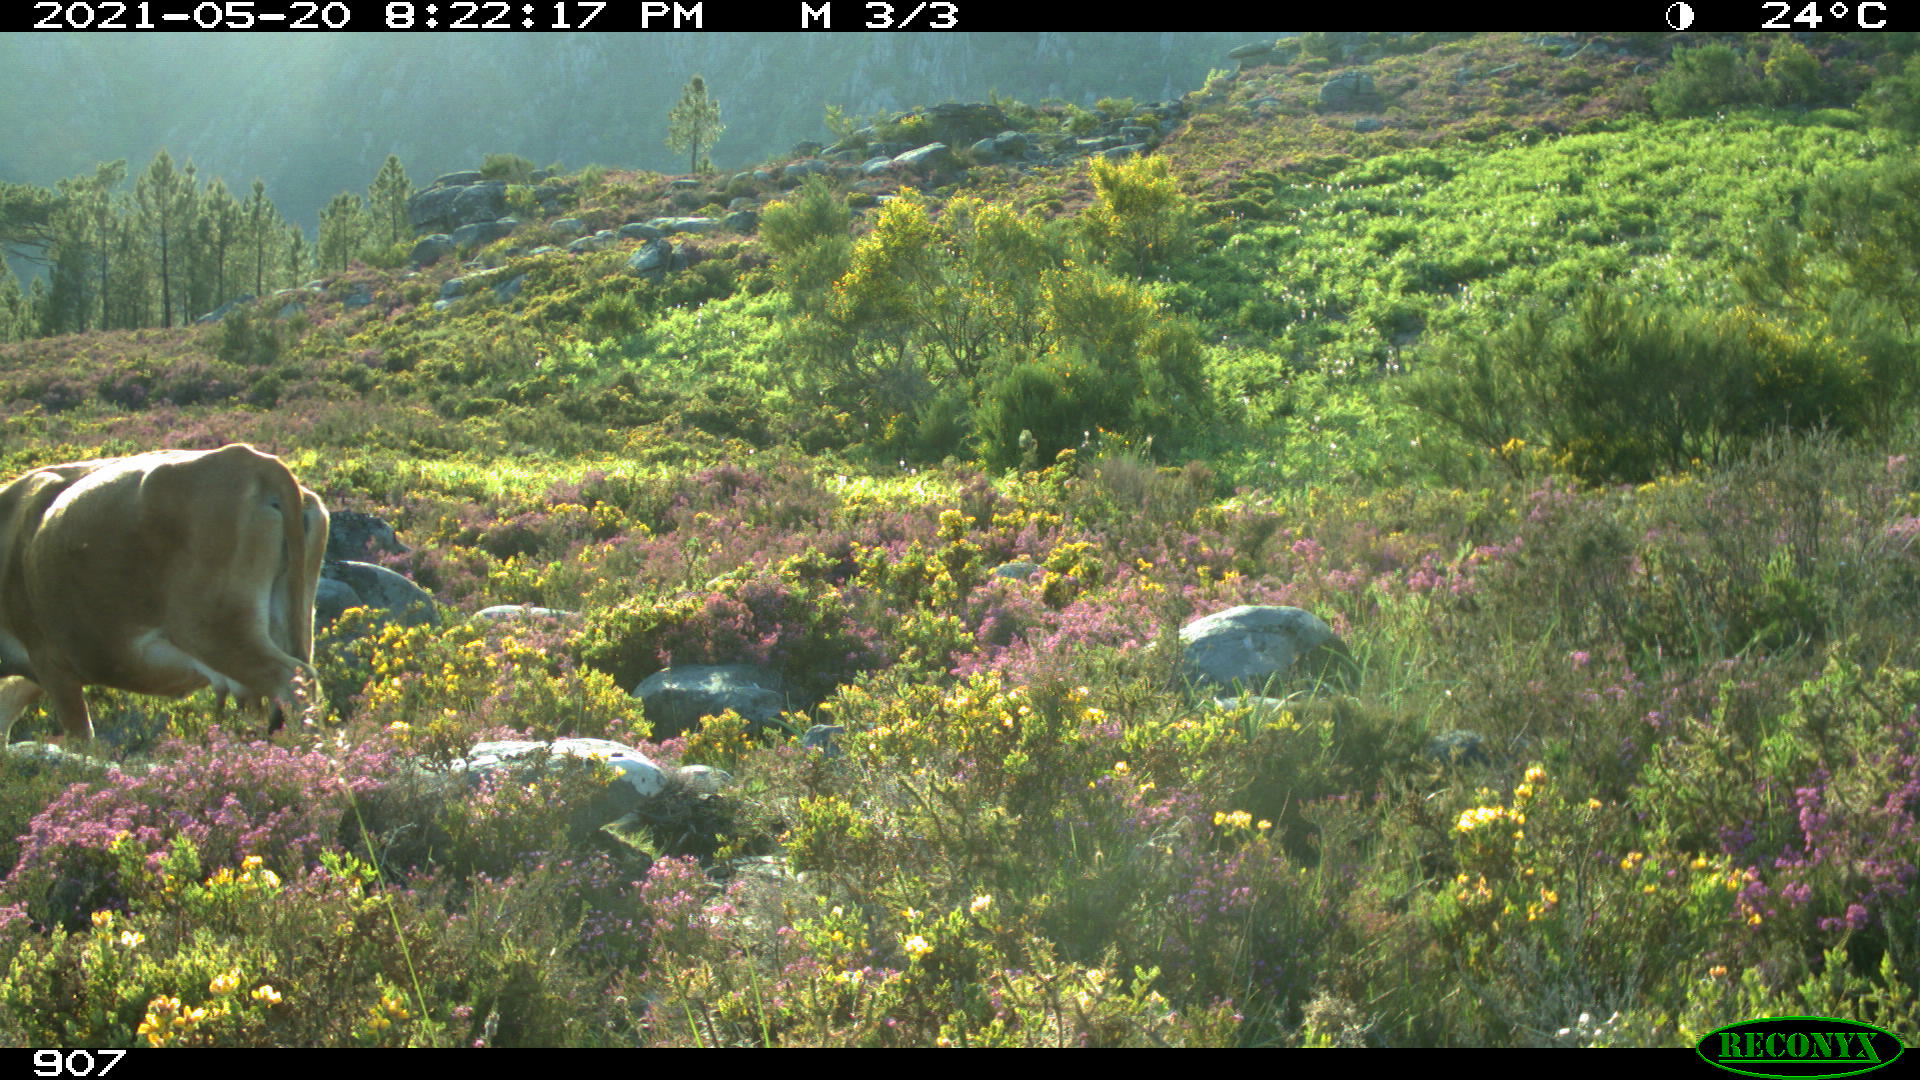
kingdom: Animalia
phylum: Chordata
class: Mammalia
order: Artiodactyla
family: Bovidae
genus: Bos
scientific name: Bos taurus
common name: Domesticated cattle
